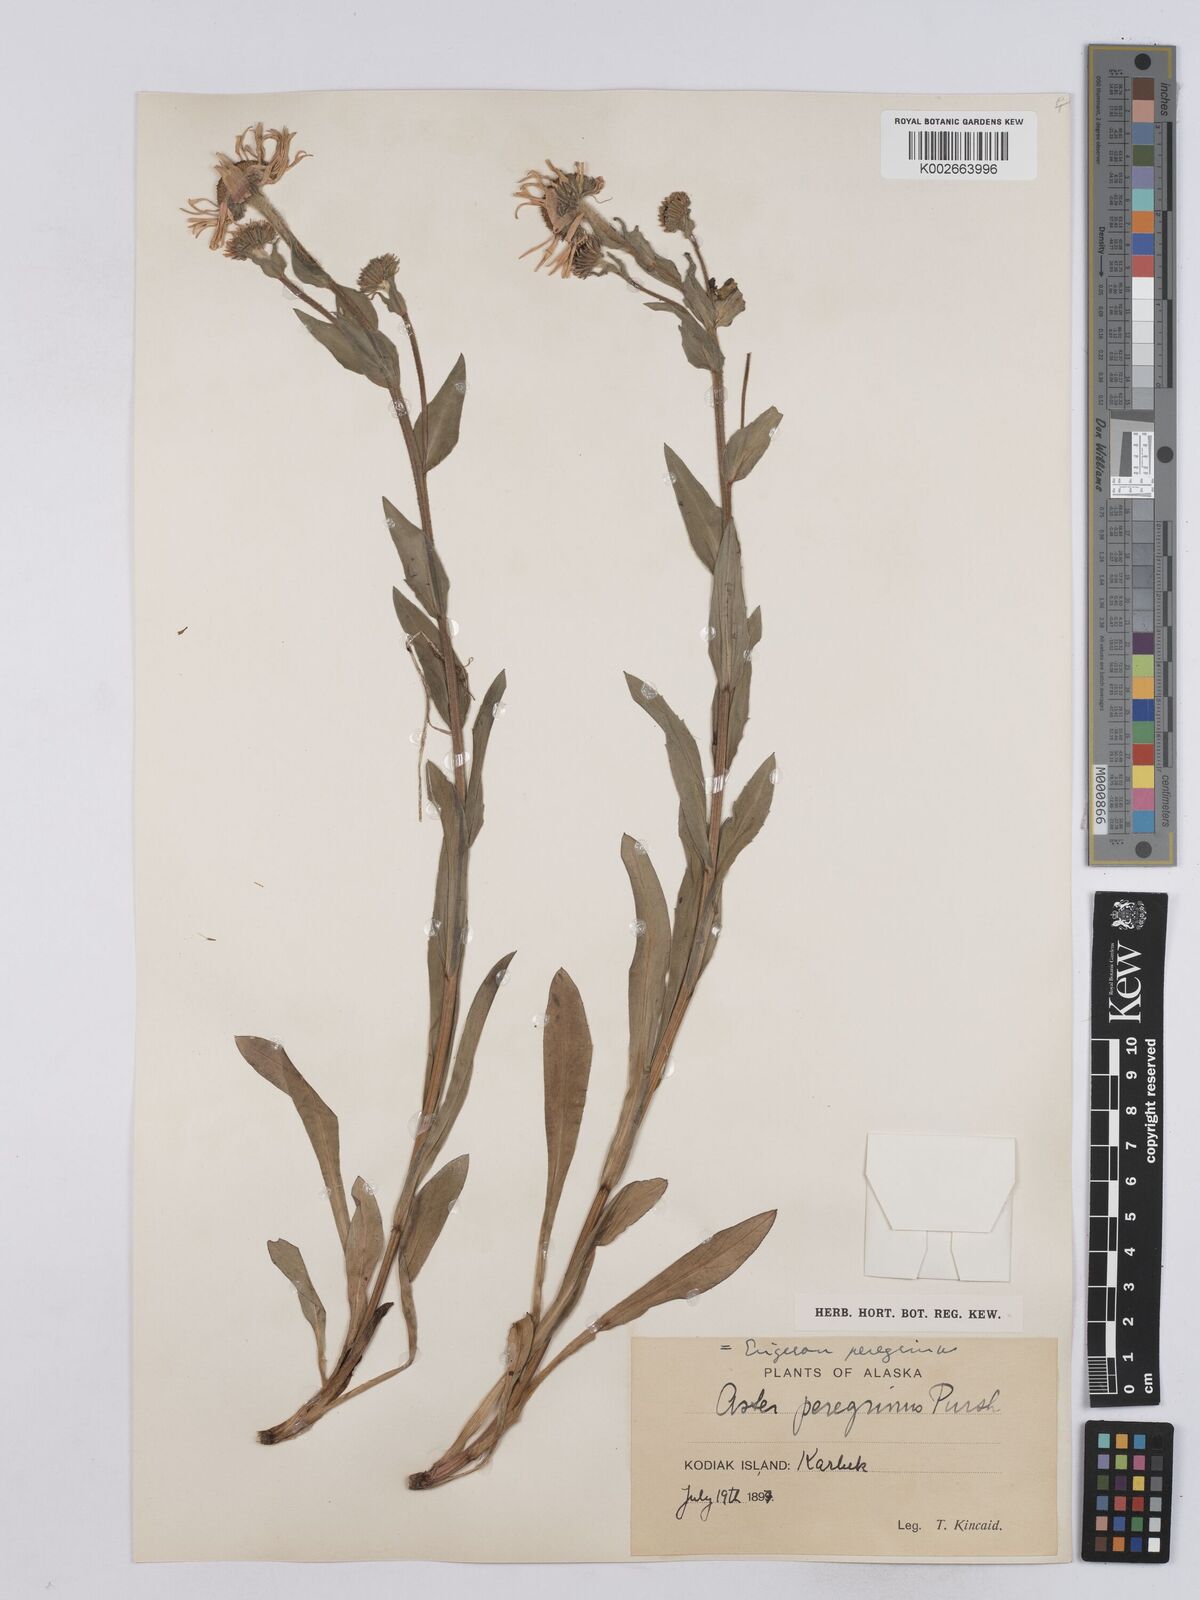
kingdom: Plantae
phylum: Tracheophyta
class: Magnoliopsida
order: Asterales
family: Asteraceae
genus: Erigeron
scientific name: Erigeron peregrinus
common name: Peregrine fleabane
